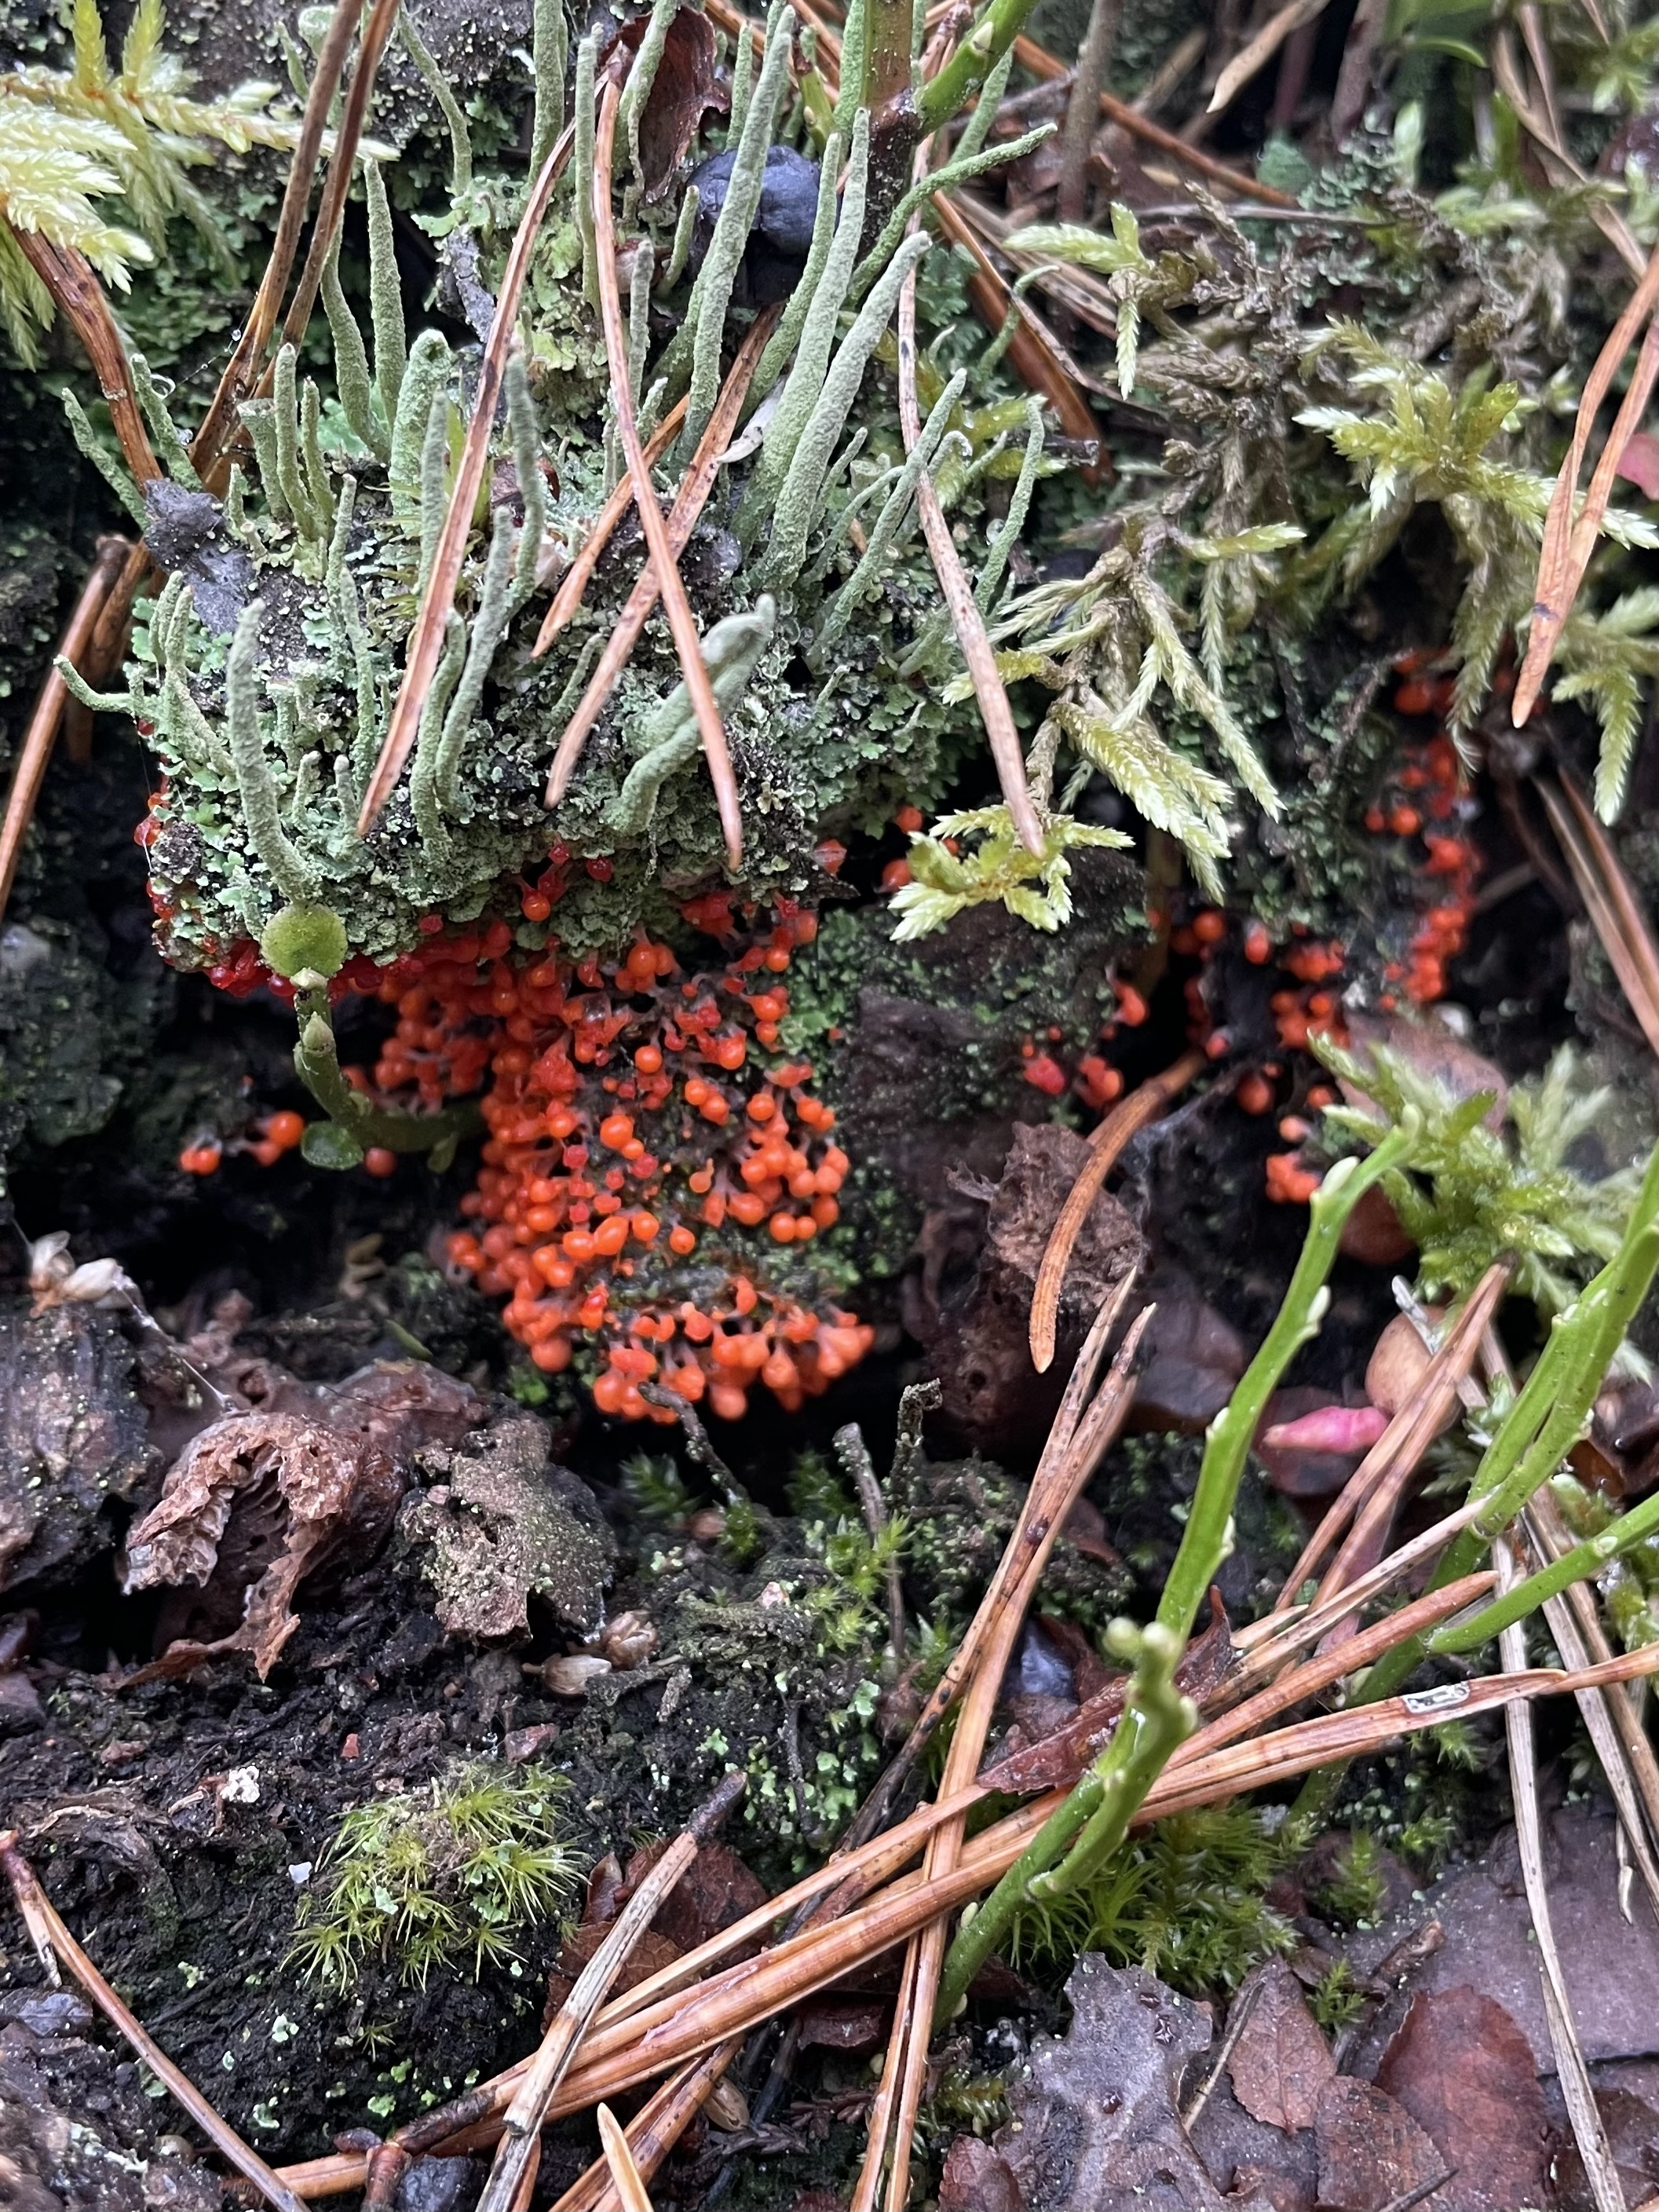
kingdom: Protozoa
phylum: Mycetozoa
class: Myxomycetes
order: Trichiales
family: Arcyriaceae
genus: Hemitrichia
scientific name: Hemitrichia calyculata
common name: Push pin slime mold
